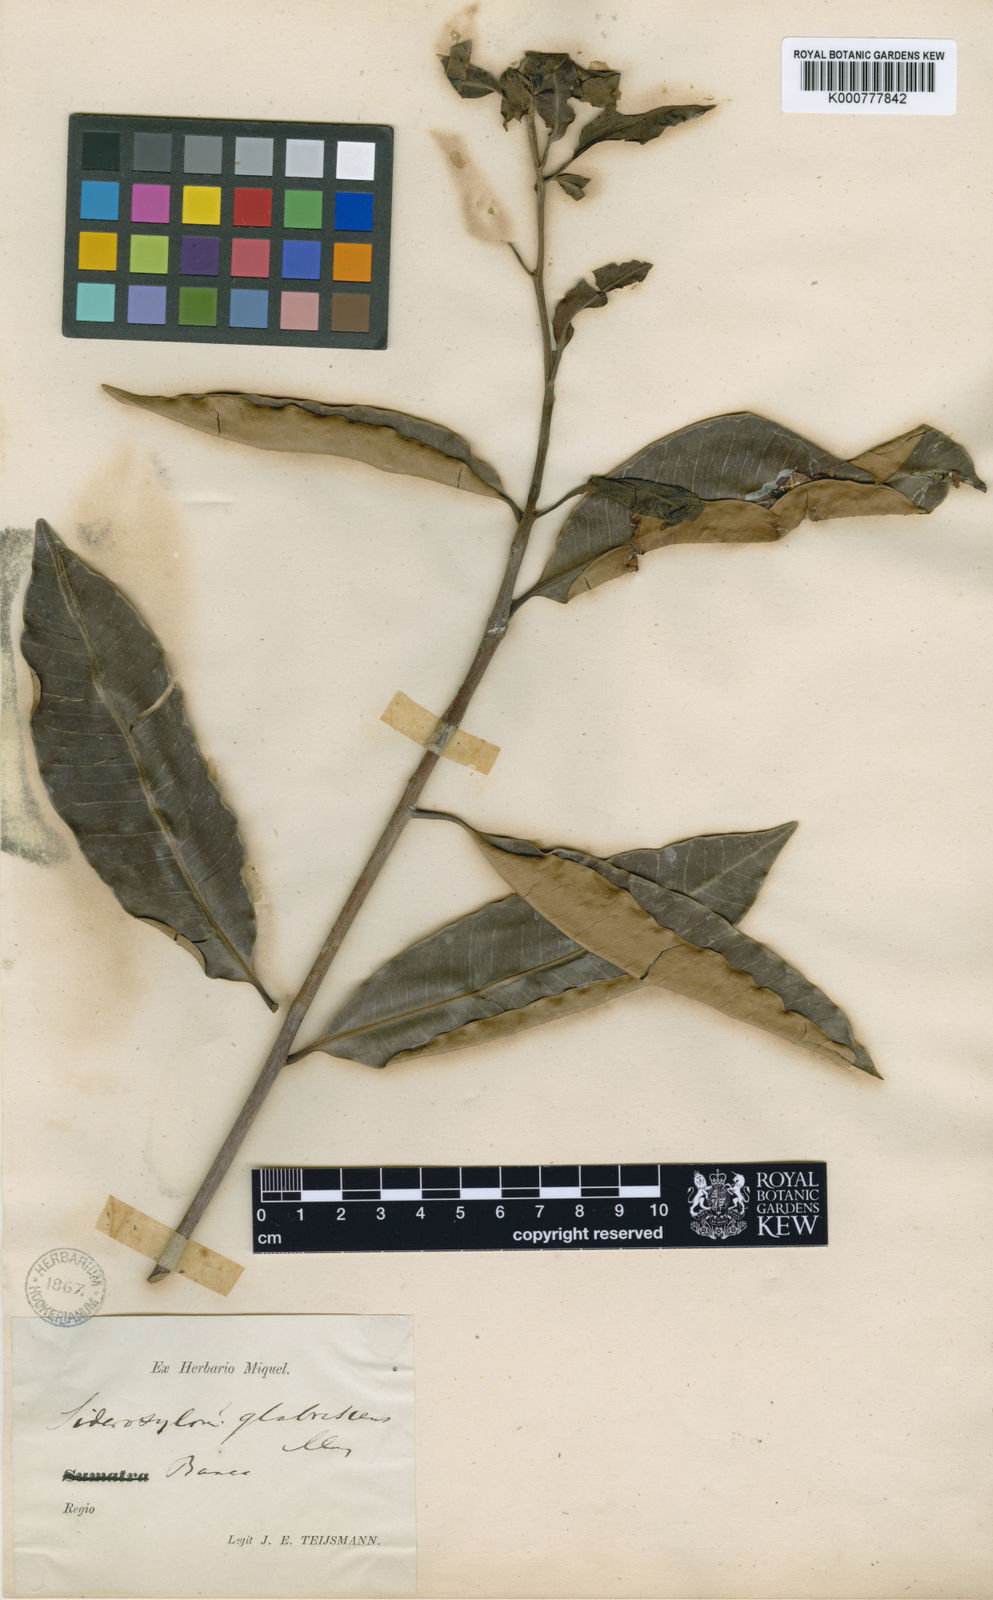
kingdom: Plantae
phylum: Tracheophyta
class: Magnoliopsida
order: Ericales
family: Sapotaceae
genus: Madhuca
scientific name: Madhuca motleyana
